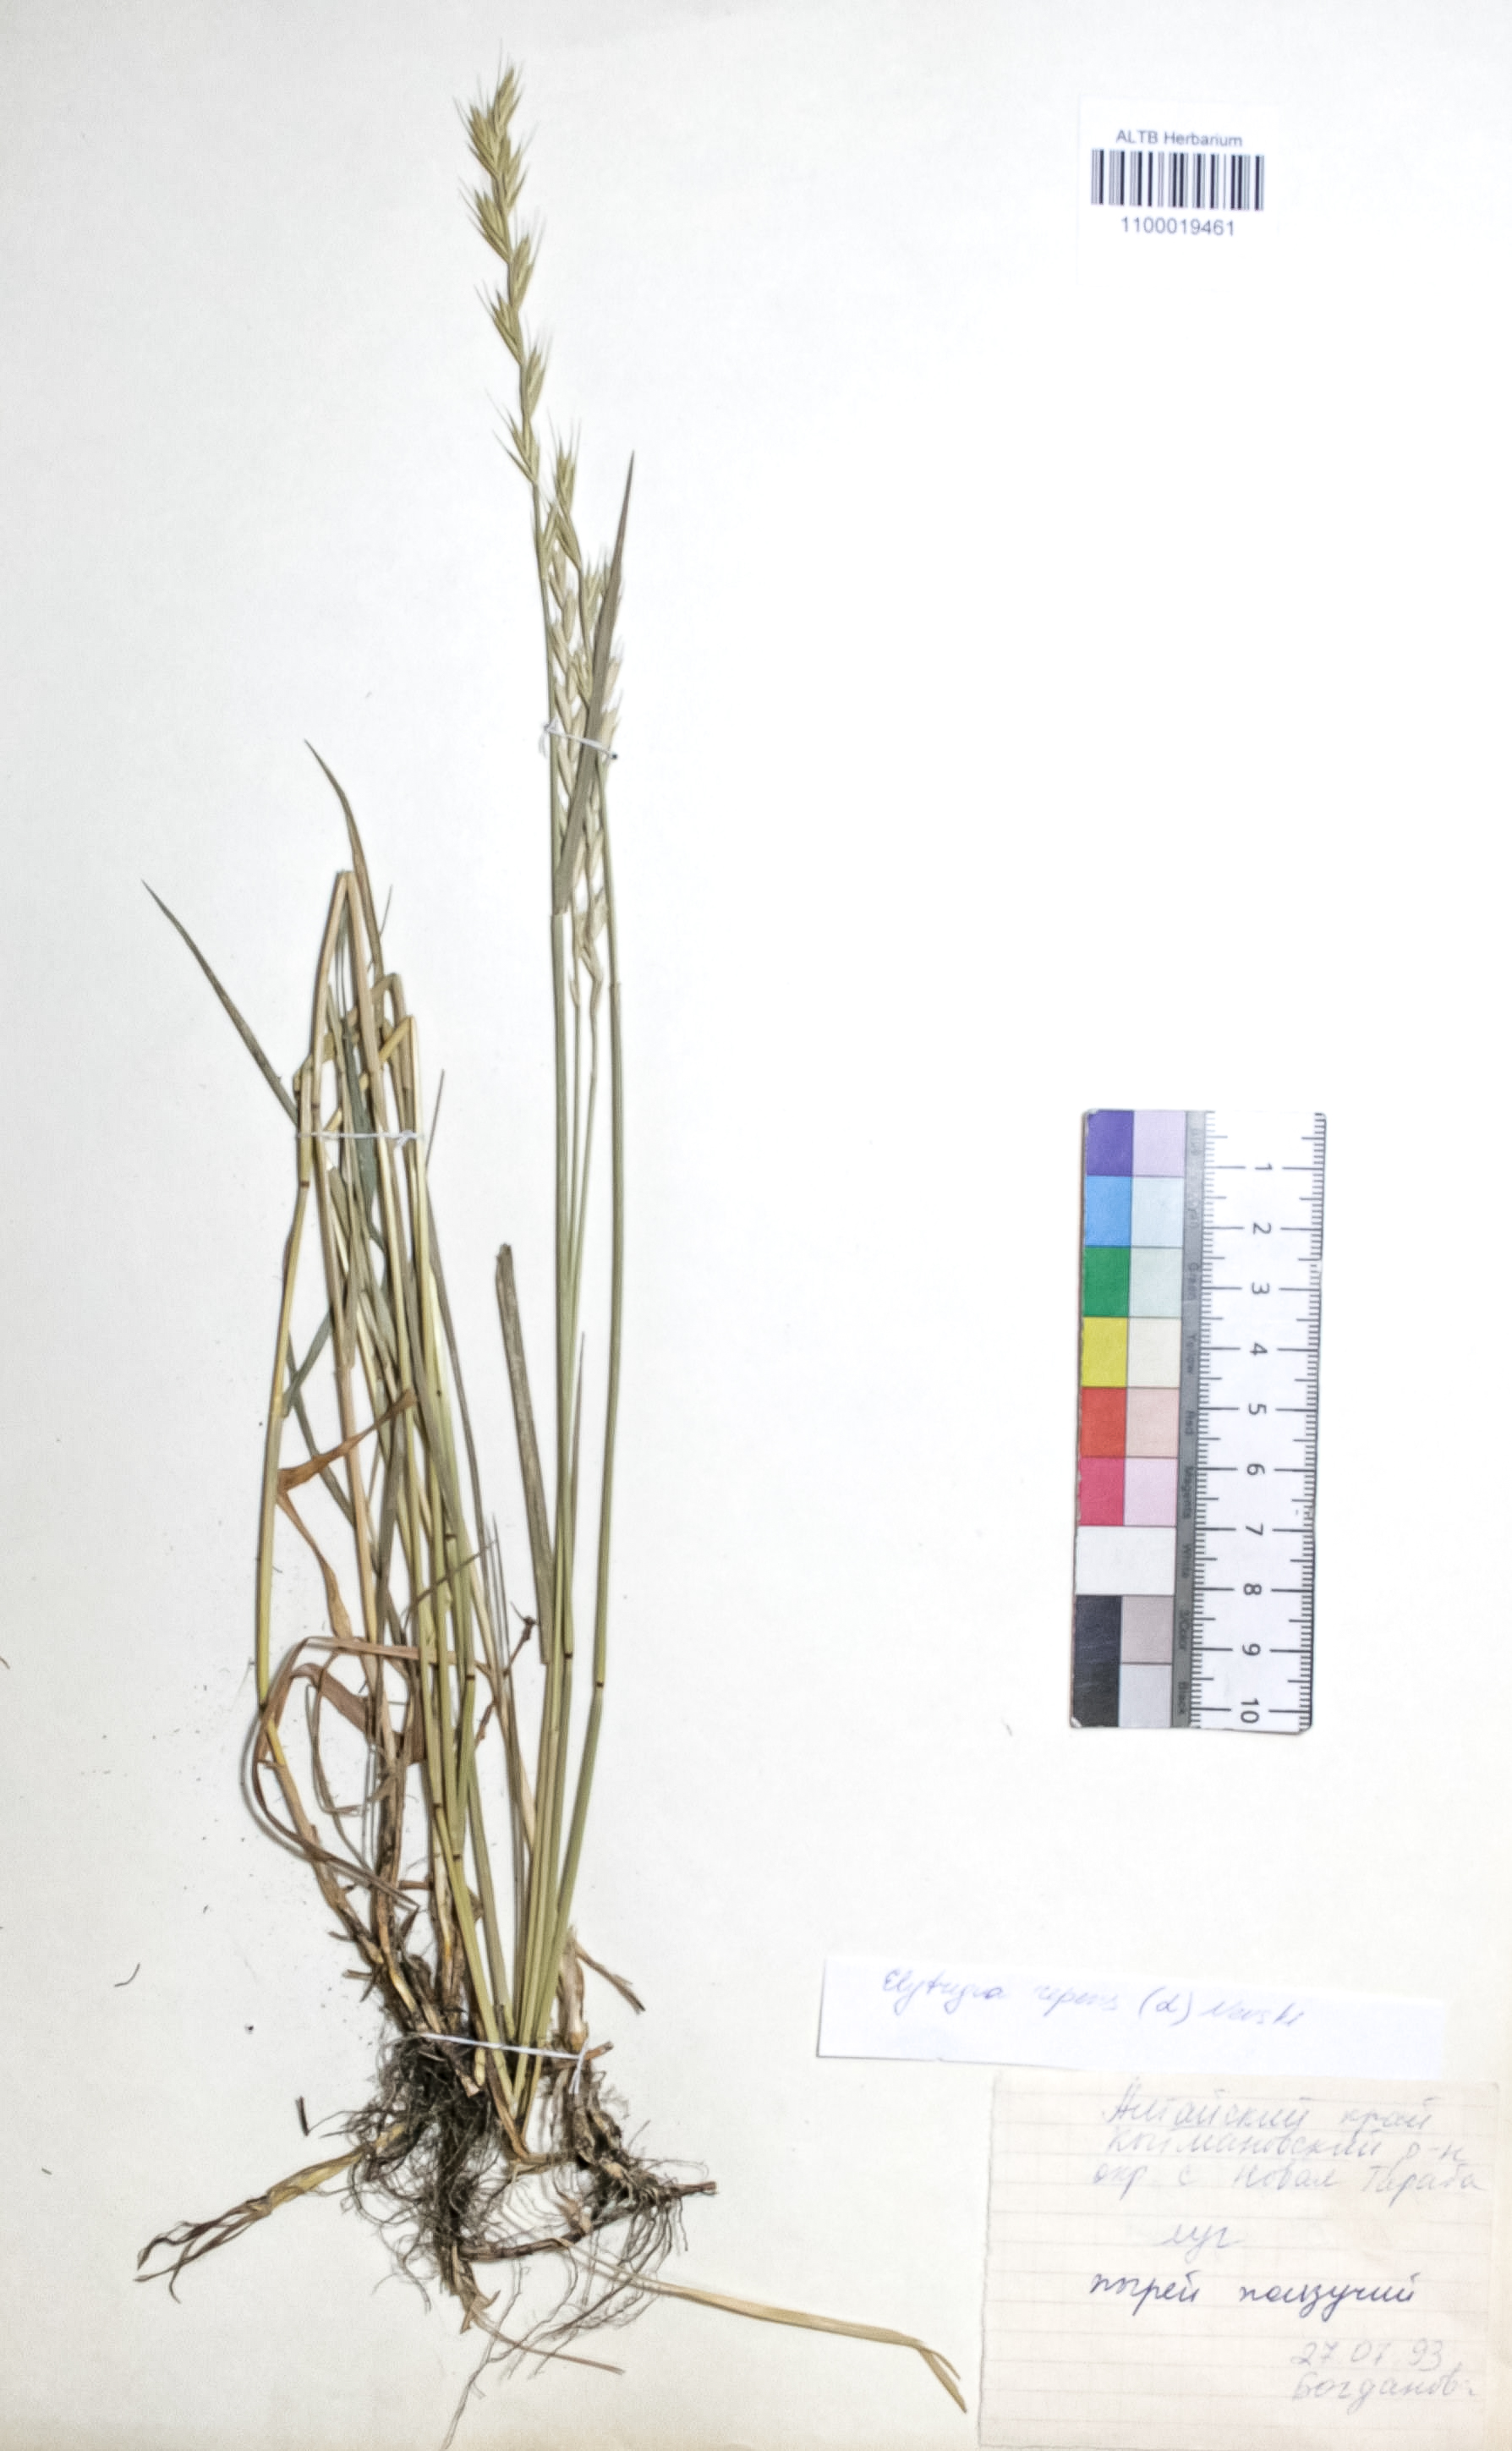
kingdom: Plantae
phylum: Tracheophyta
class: Liliopsida
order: Poales
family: Poaceae
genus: Elymus
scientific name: Elymus repens
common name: Quackgrass
